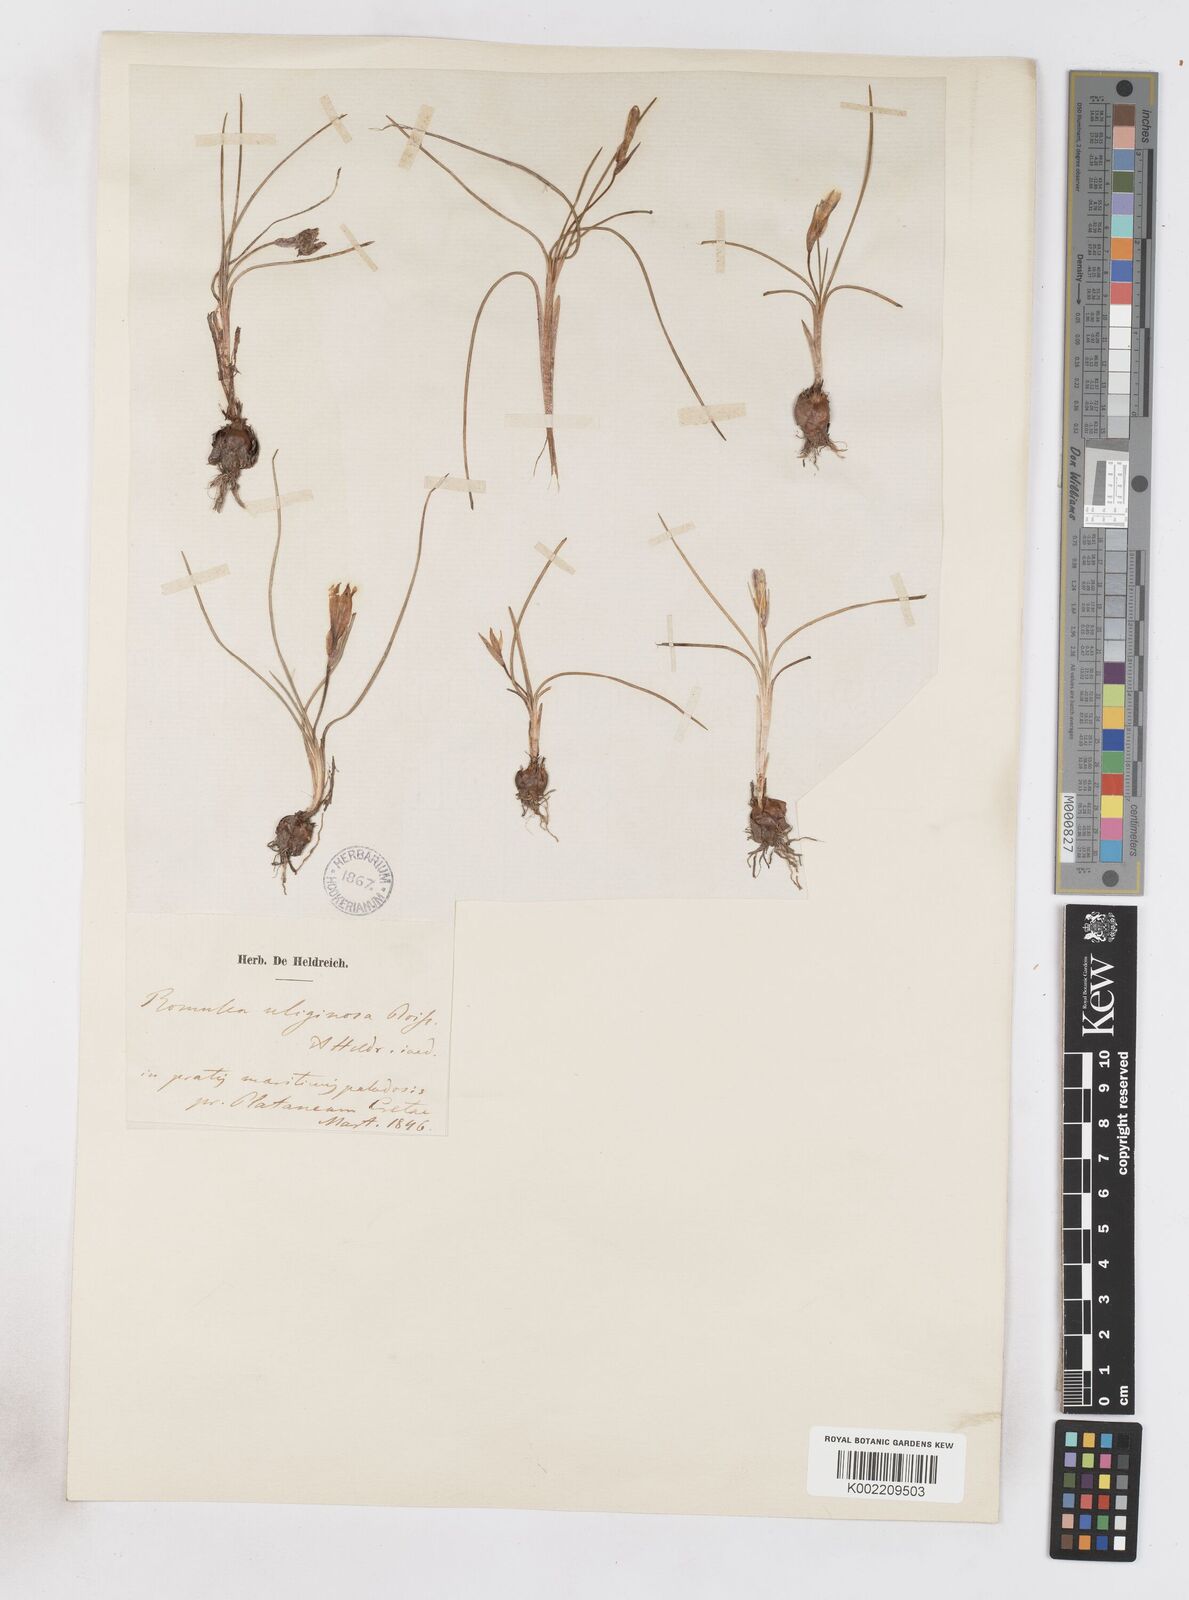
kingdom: Plantae
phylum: Tracheophyta
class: Liliopsida
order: Asparagales
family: Iridaceae
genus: Romulea
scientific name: Romulea bulbocodium
